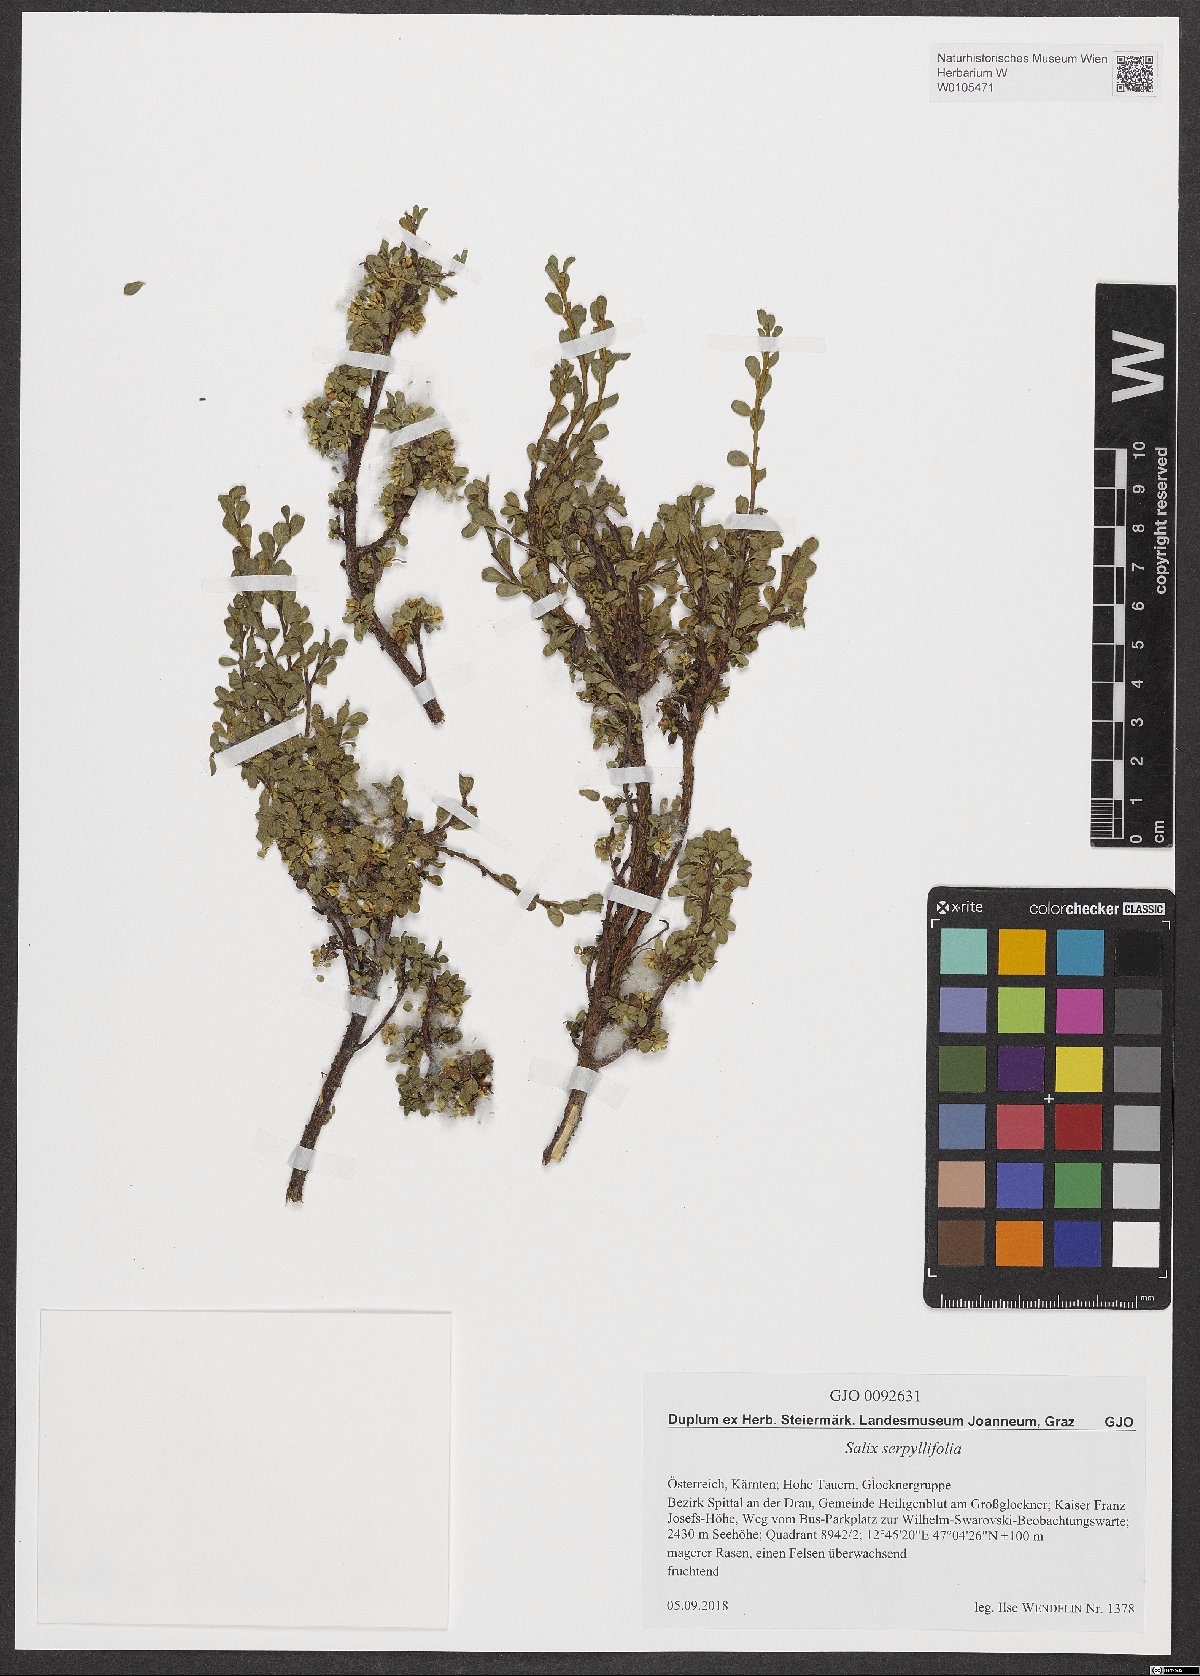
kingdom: Plantae
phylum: Tracheophyta
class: Magnoliopsida
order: Malpighiales
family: Salicaceae
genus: Salix
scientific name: Salix serpillifolia
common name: Thyme-leaf willow
